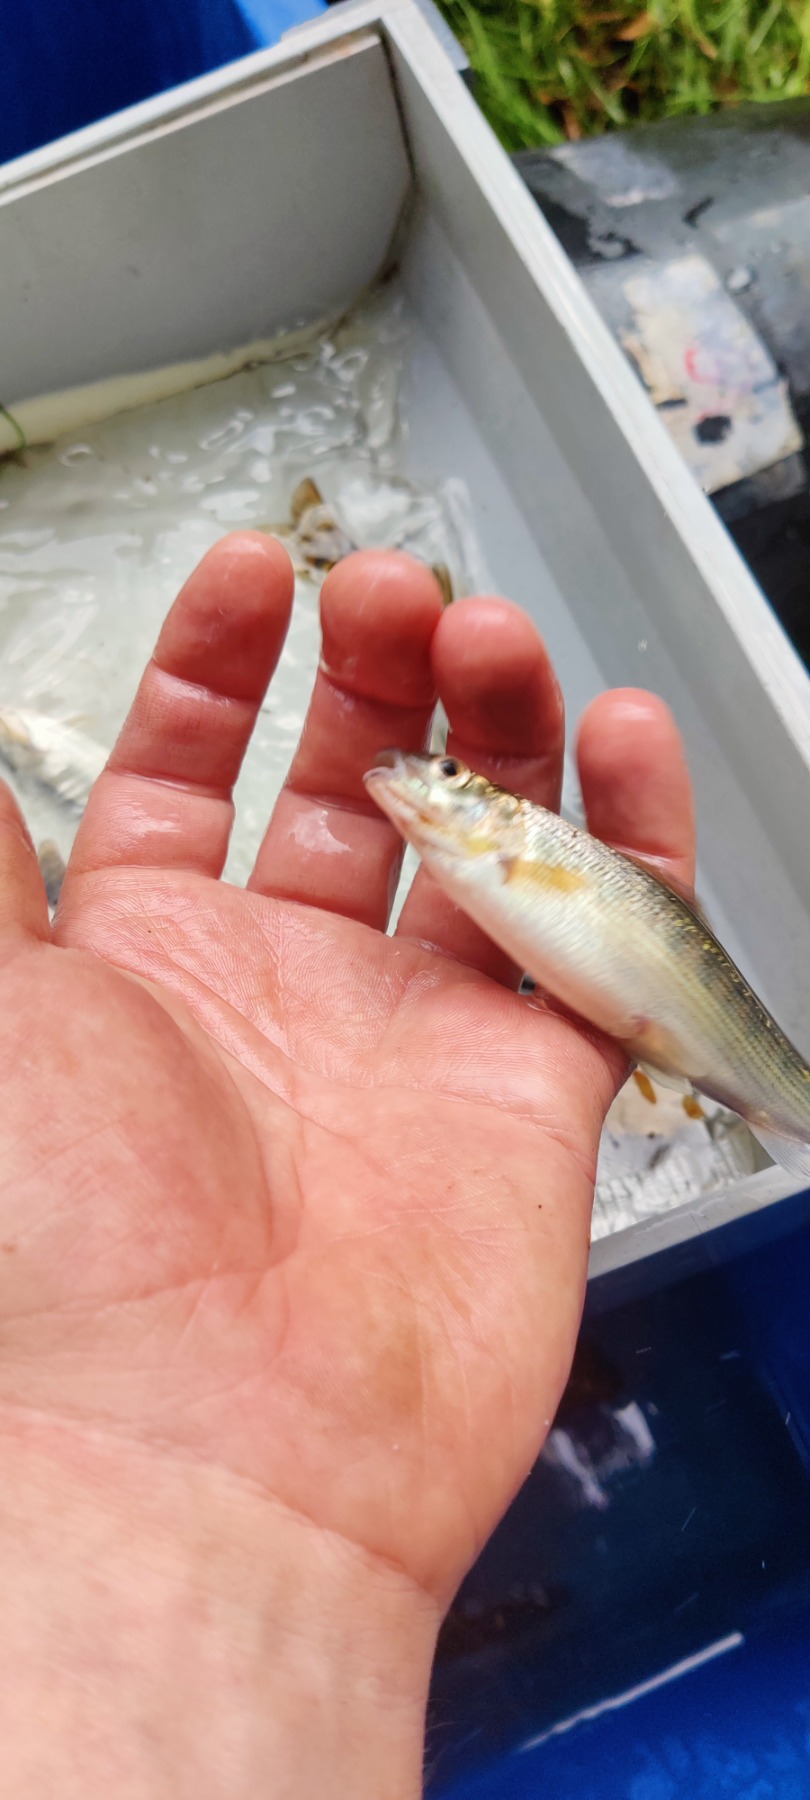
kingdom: Animalia
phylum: Chordata
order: Salmoniformes
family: Salmonidae
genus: Thymallus
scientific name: Thymallus thymallus
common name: Stalling
